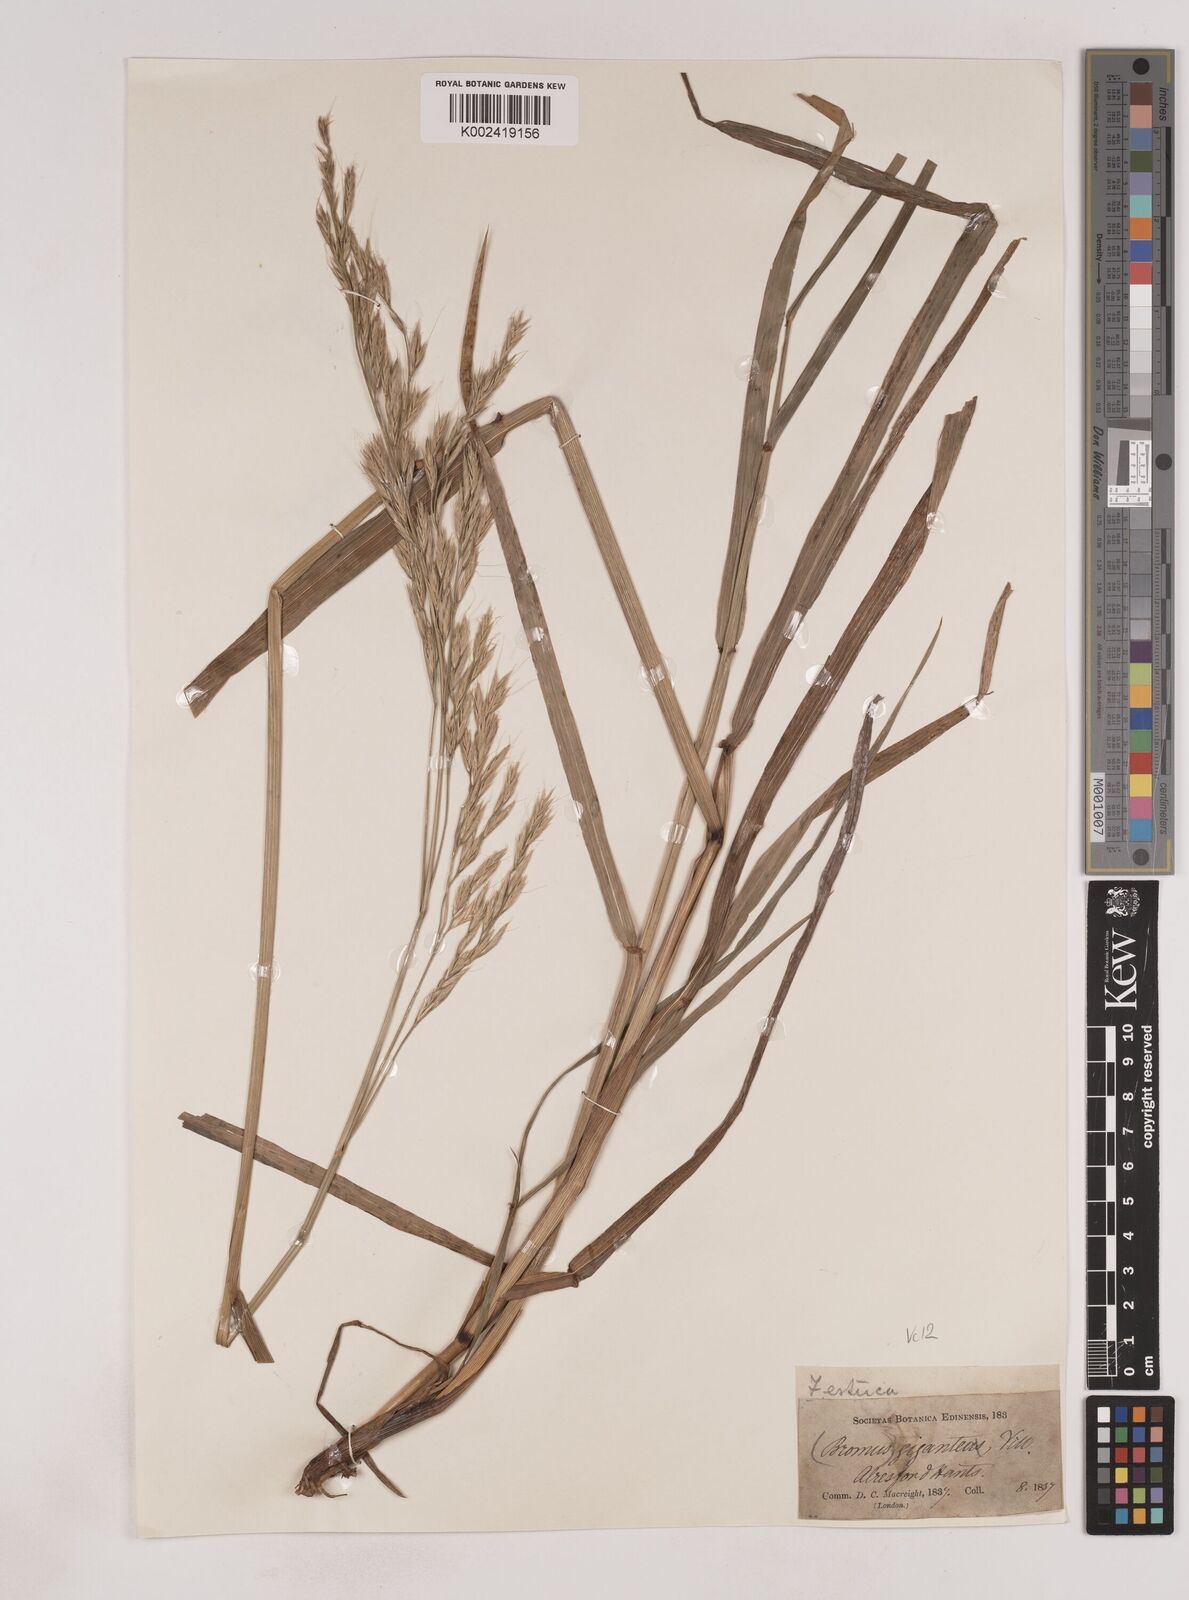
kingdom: Plantae
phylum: Tracheophyta
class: Liliopsida
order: Poales
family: Poaceae
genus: Lolium
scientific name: Lolium giganteum
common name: Giant fescue
